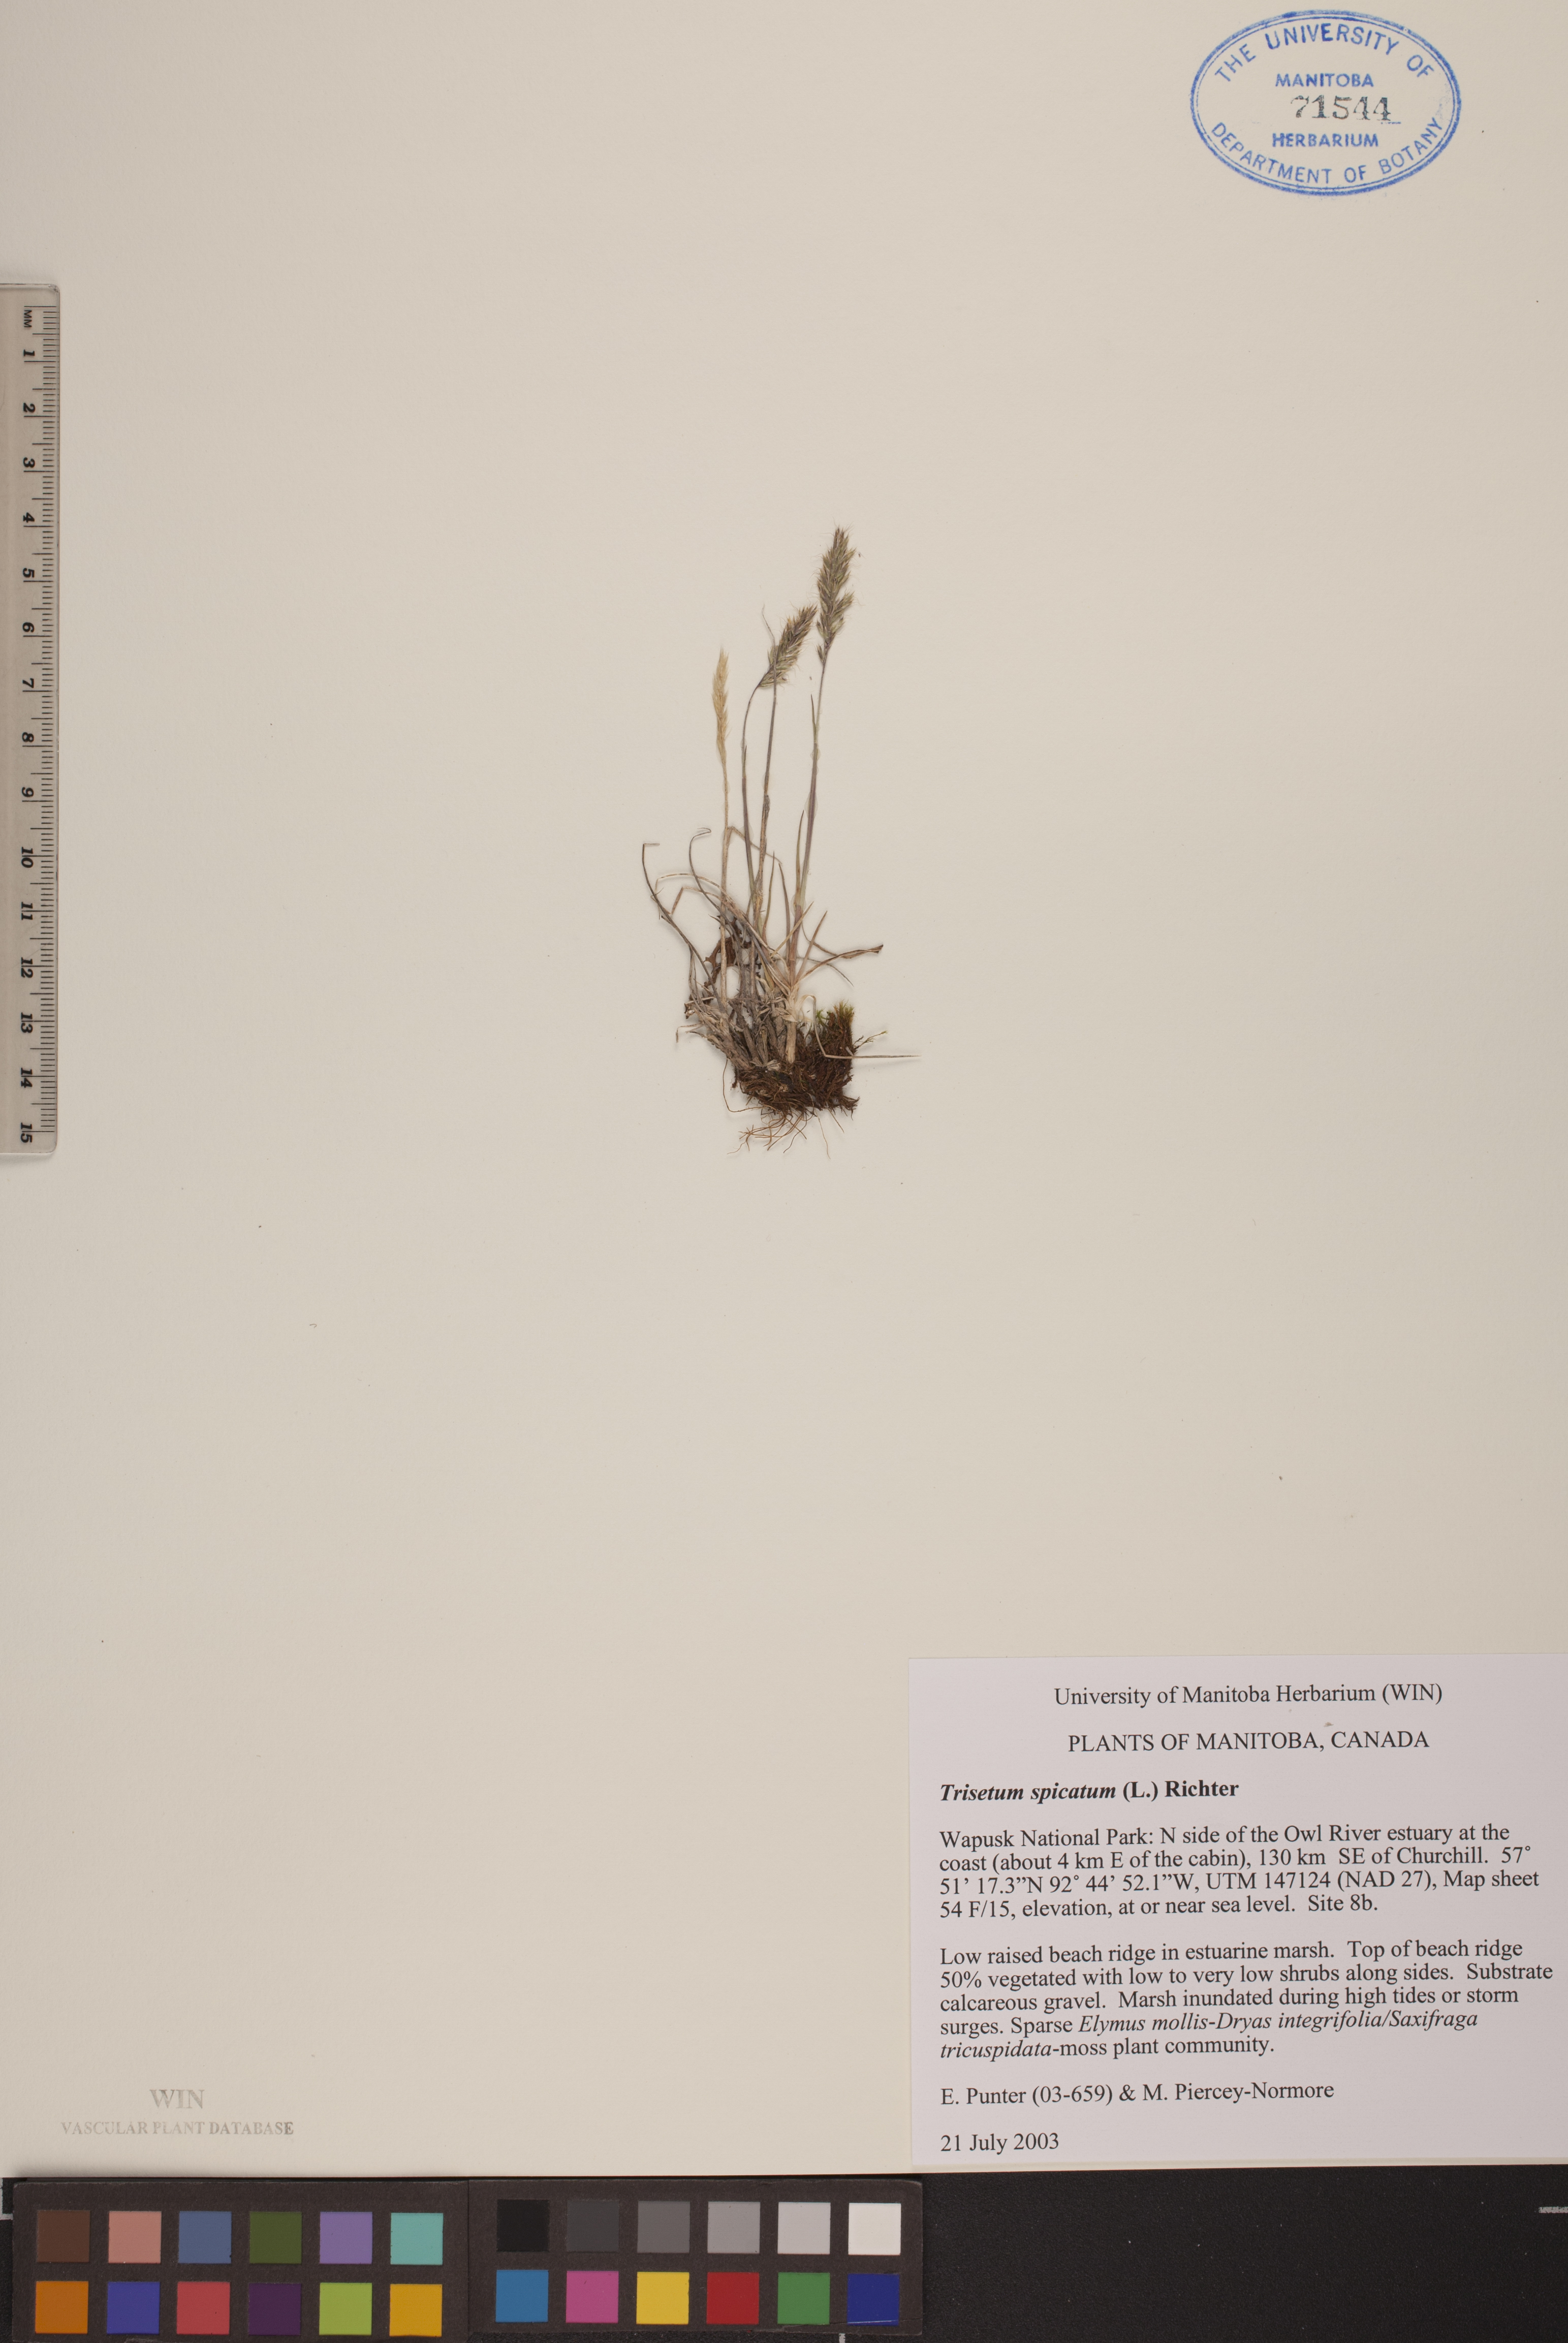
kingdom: Plantae
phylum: Tracheophyta
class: Liliopsida
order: Poales
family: Poaceae
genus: Koeleria
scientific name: Koeleria spicata
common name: Mountain trisetum
